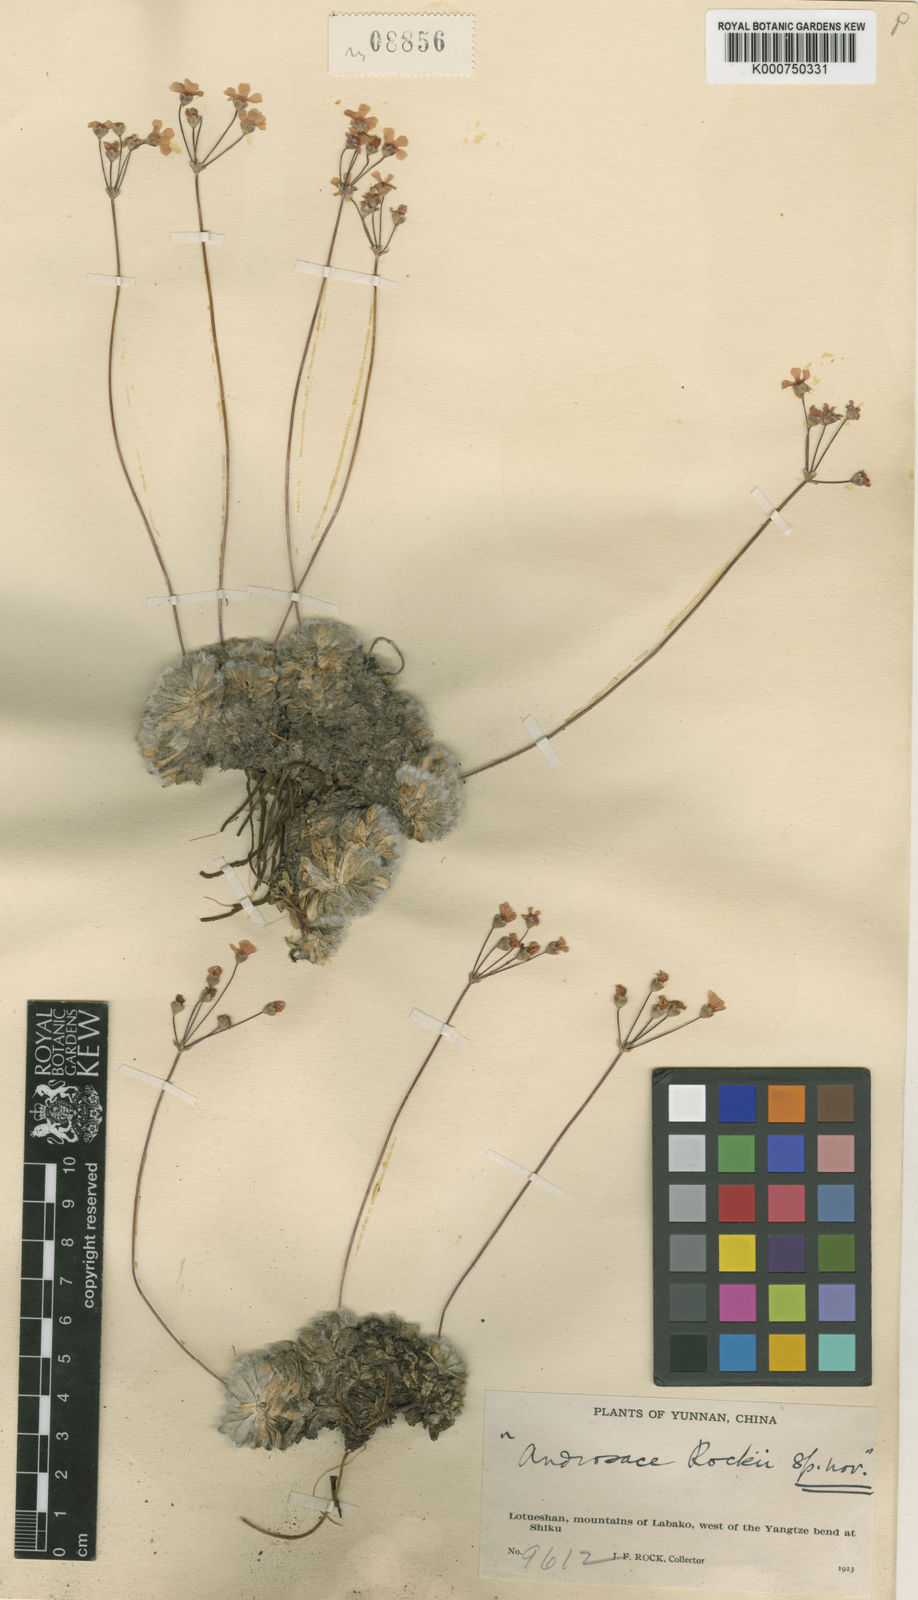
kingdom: Plantae
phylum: Tracheophyta
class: Magnoliopsida
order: Ericales
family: Primulaceae
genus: Androsace
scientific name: Androsace rockii
